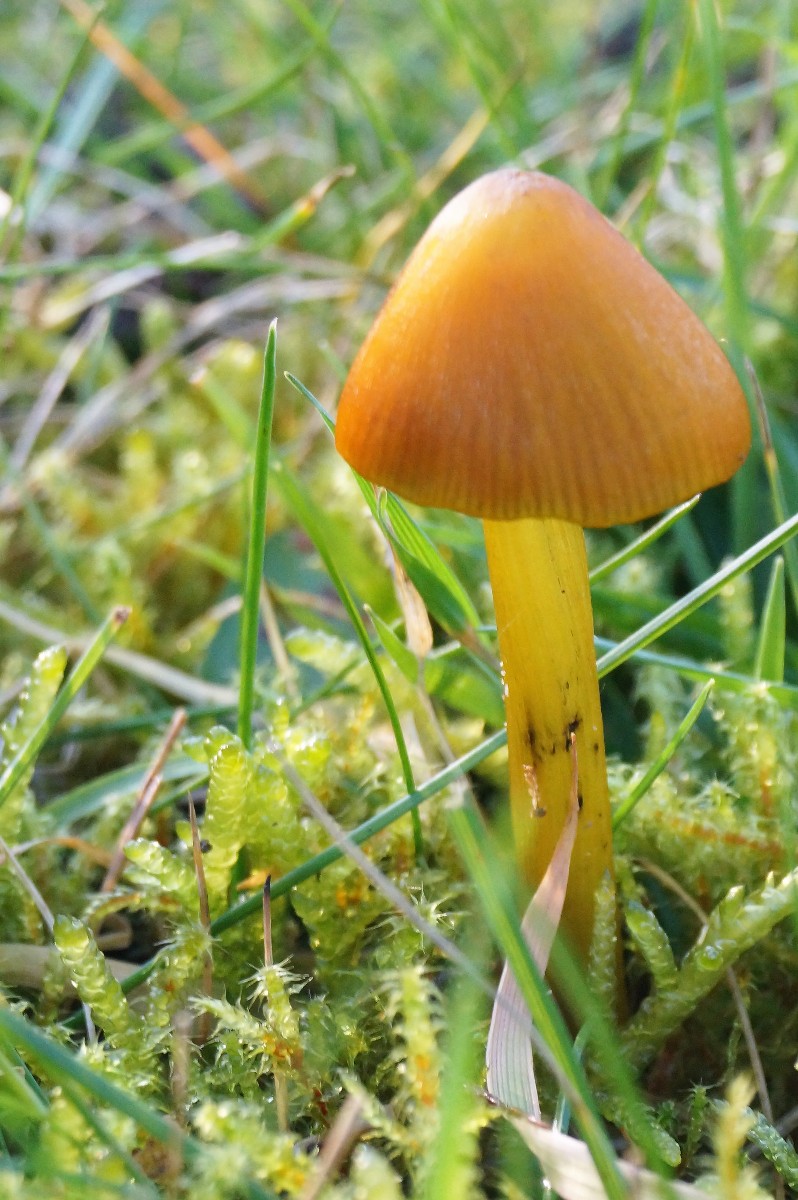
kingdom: Fungi
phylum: Basidiomycota
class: Agaricomycetes
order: Agaricales
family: Hygrophoraceae
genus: Hygrocybe
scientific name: Hygrocybe conica
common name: kegle-vokshat
